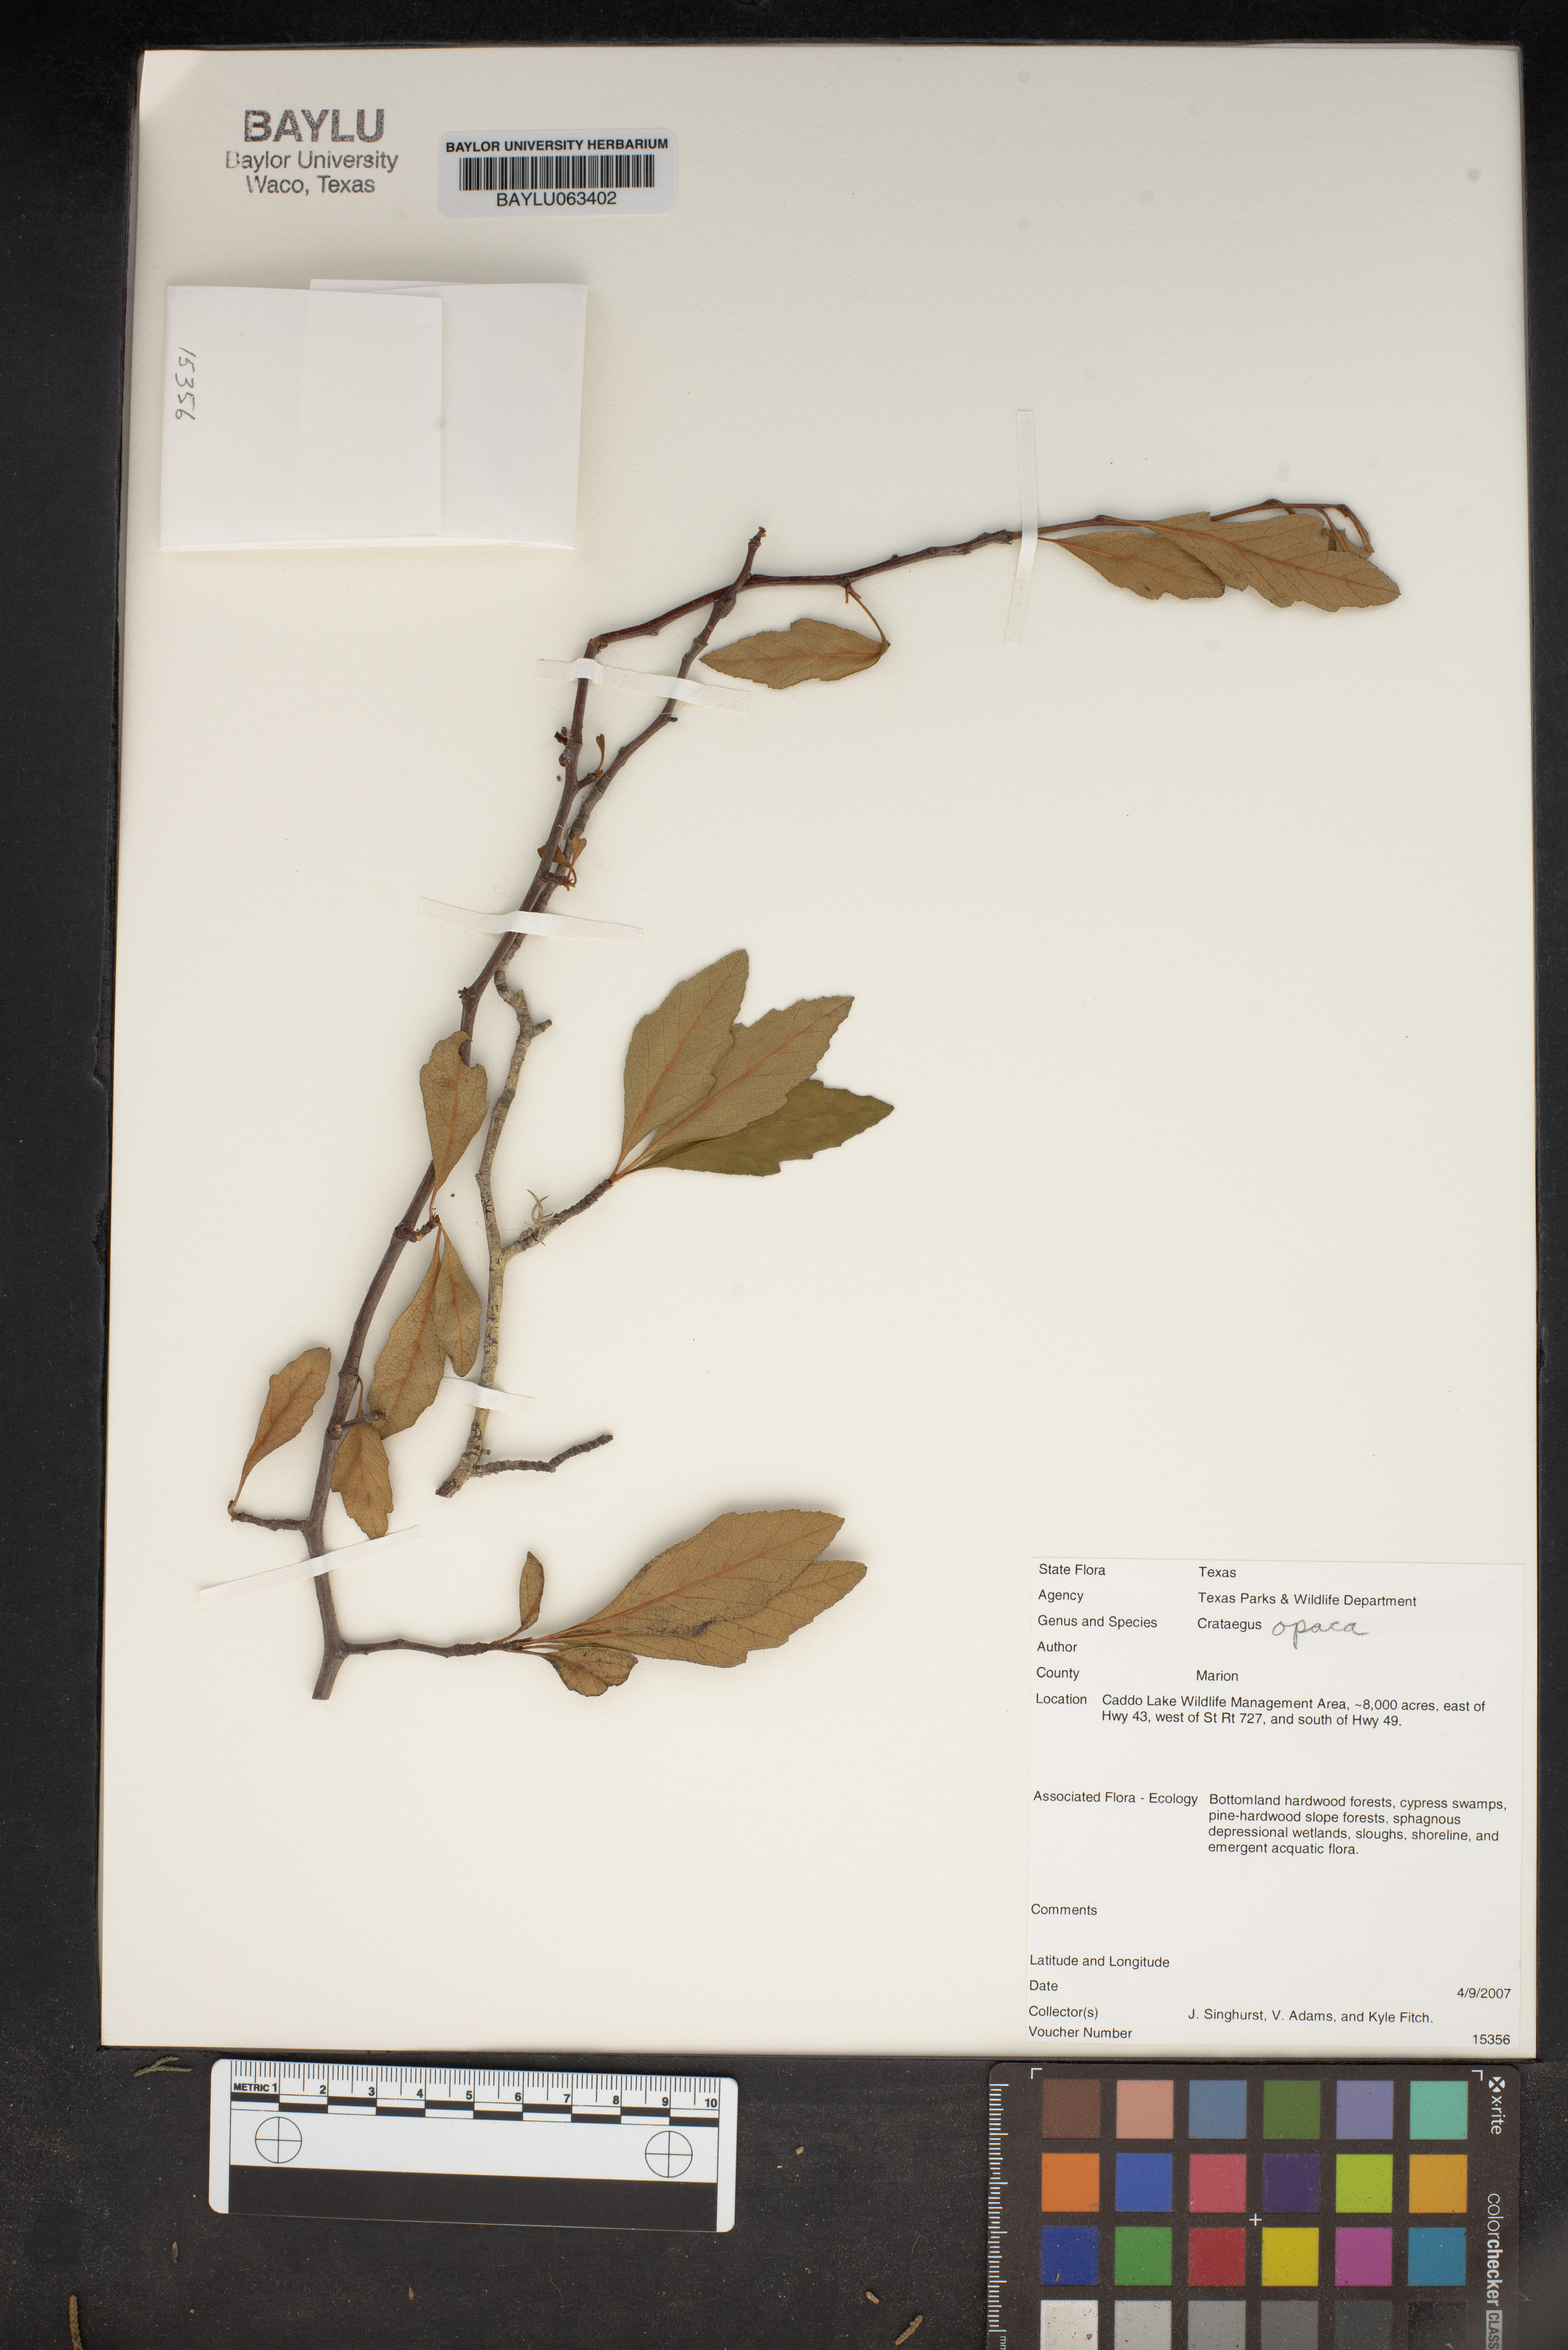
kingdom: Plantae
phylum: Tracheophyta
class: Magnoliopsida
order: Rosales
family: Rosaceae
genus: Crataegus
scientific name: Crataegus opaca
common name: Apple haw
